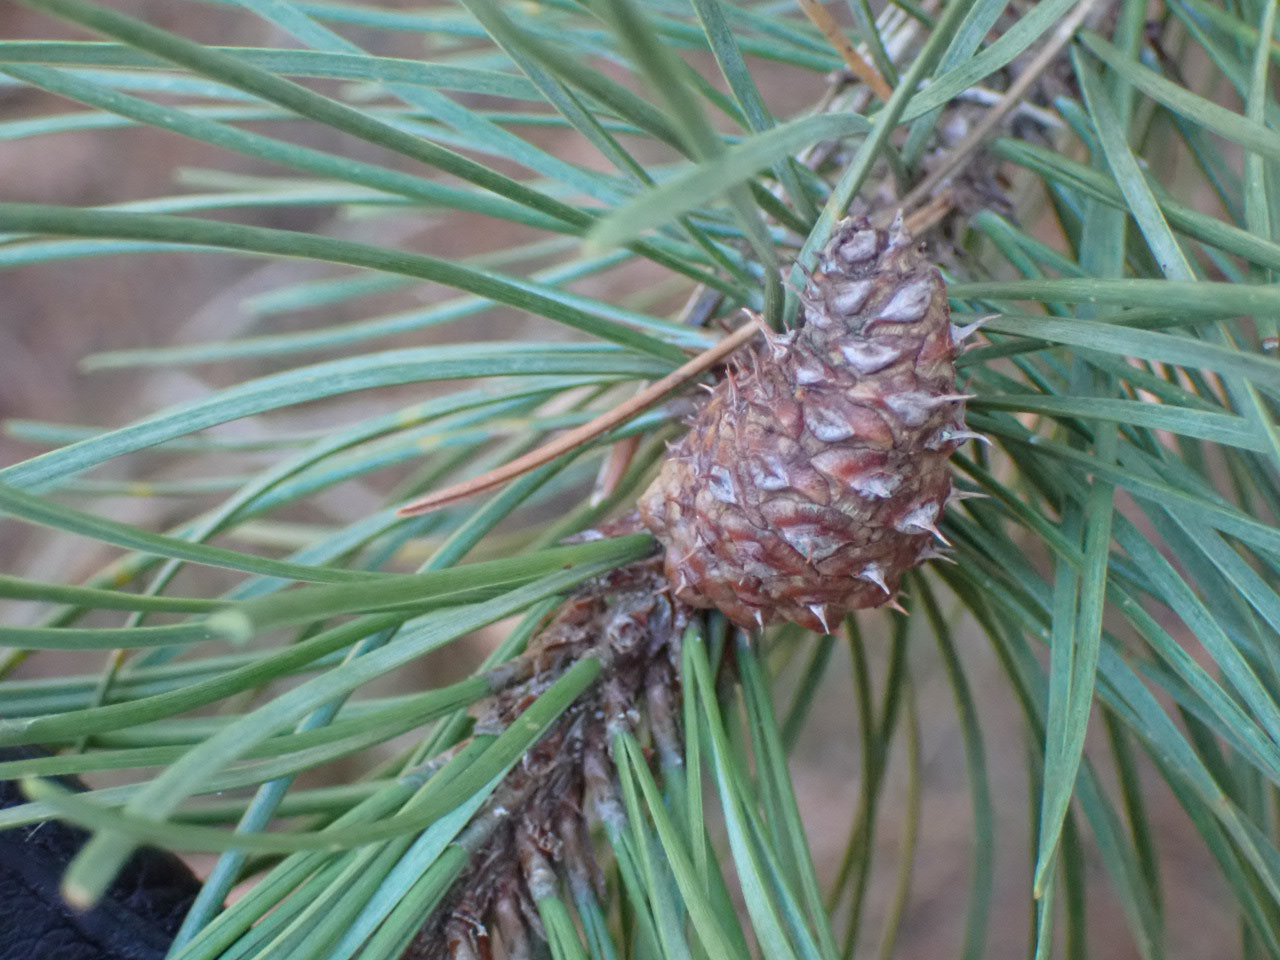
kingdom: Plantae
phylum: Tracheophyta
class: Pinopsida
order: Pinales
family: Pinaceae
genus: Pinus
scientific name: Pinus contorta
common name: Klit-fyr
